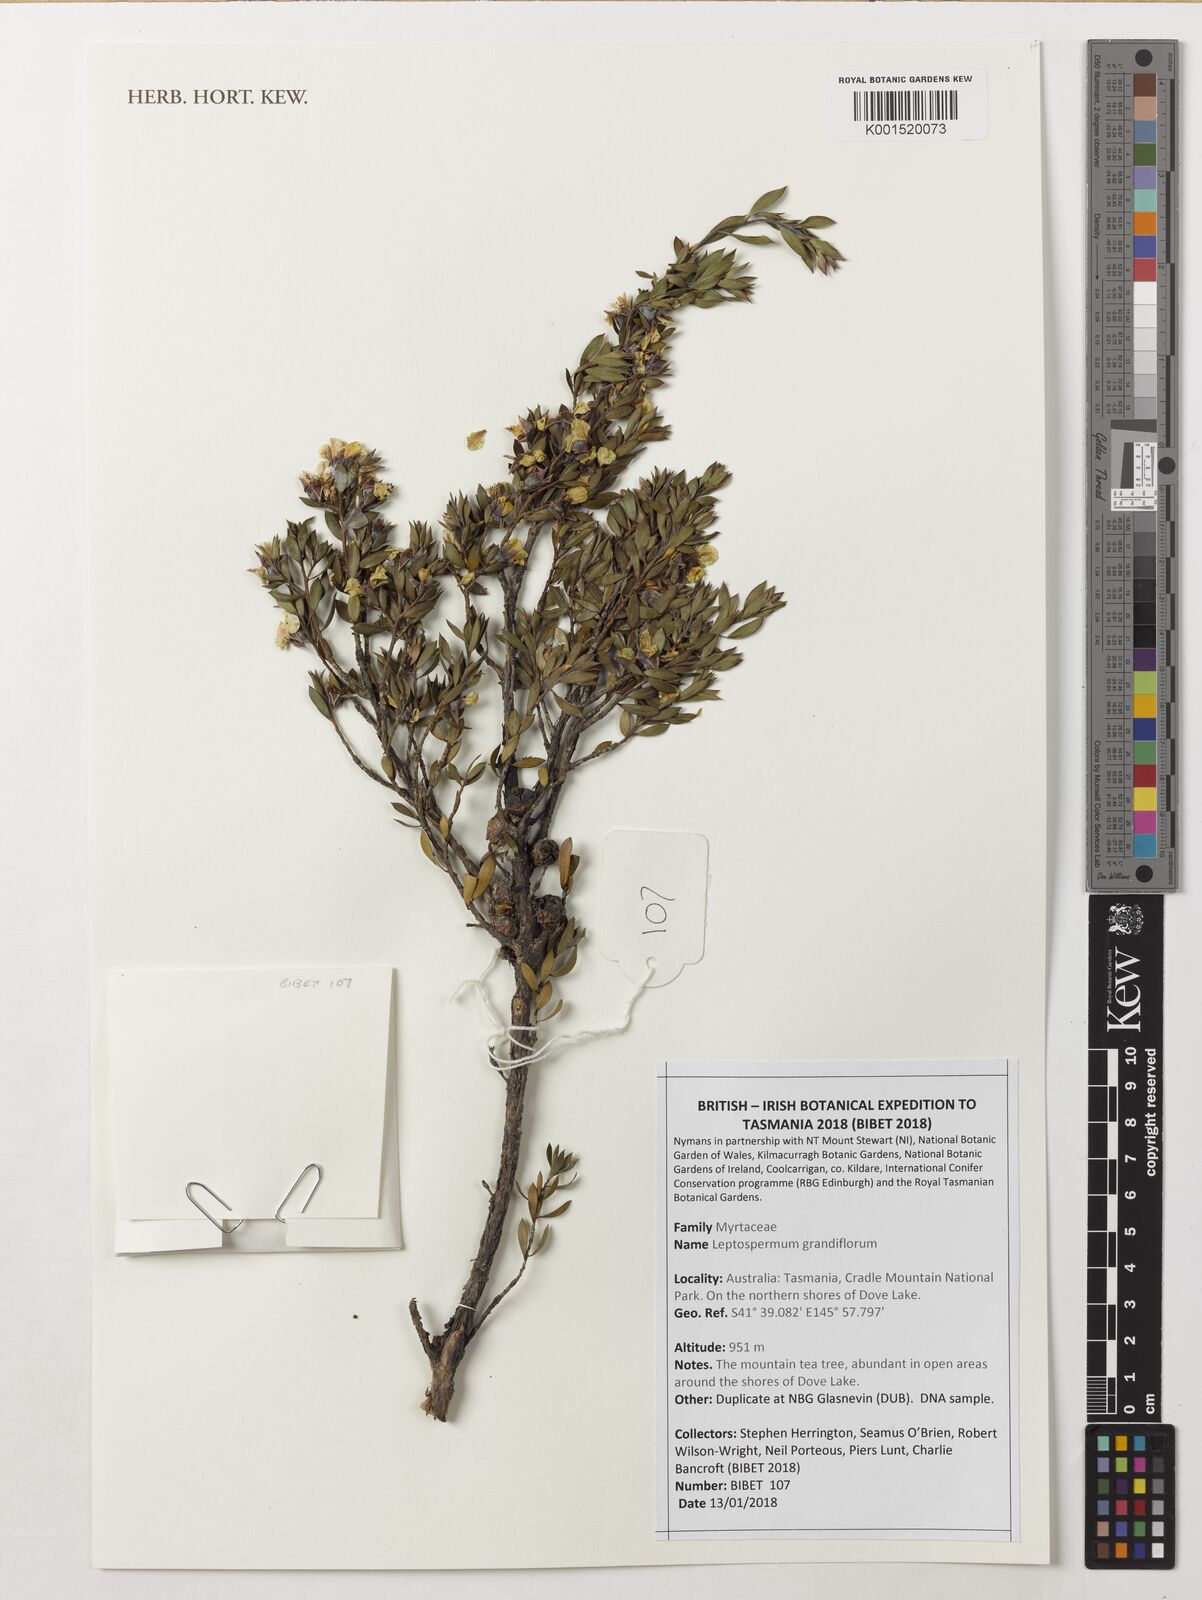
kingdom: Plantae
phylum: Tracheophyta
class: Magnoliopsida
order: Myrtales
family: Myrtaceae
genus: Leptospermum
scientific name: Leptospermum grandiflorum
